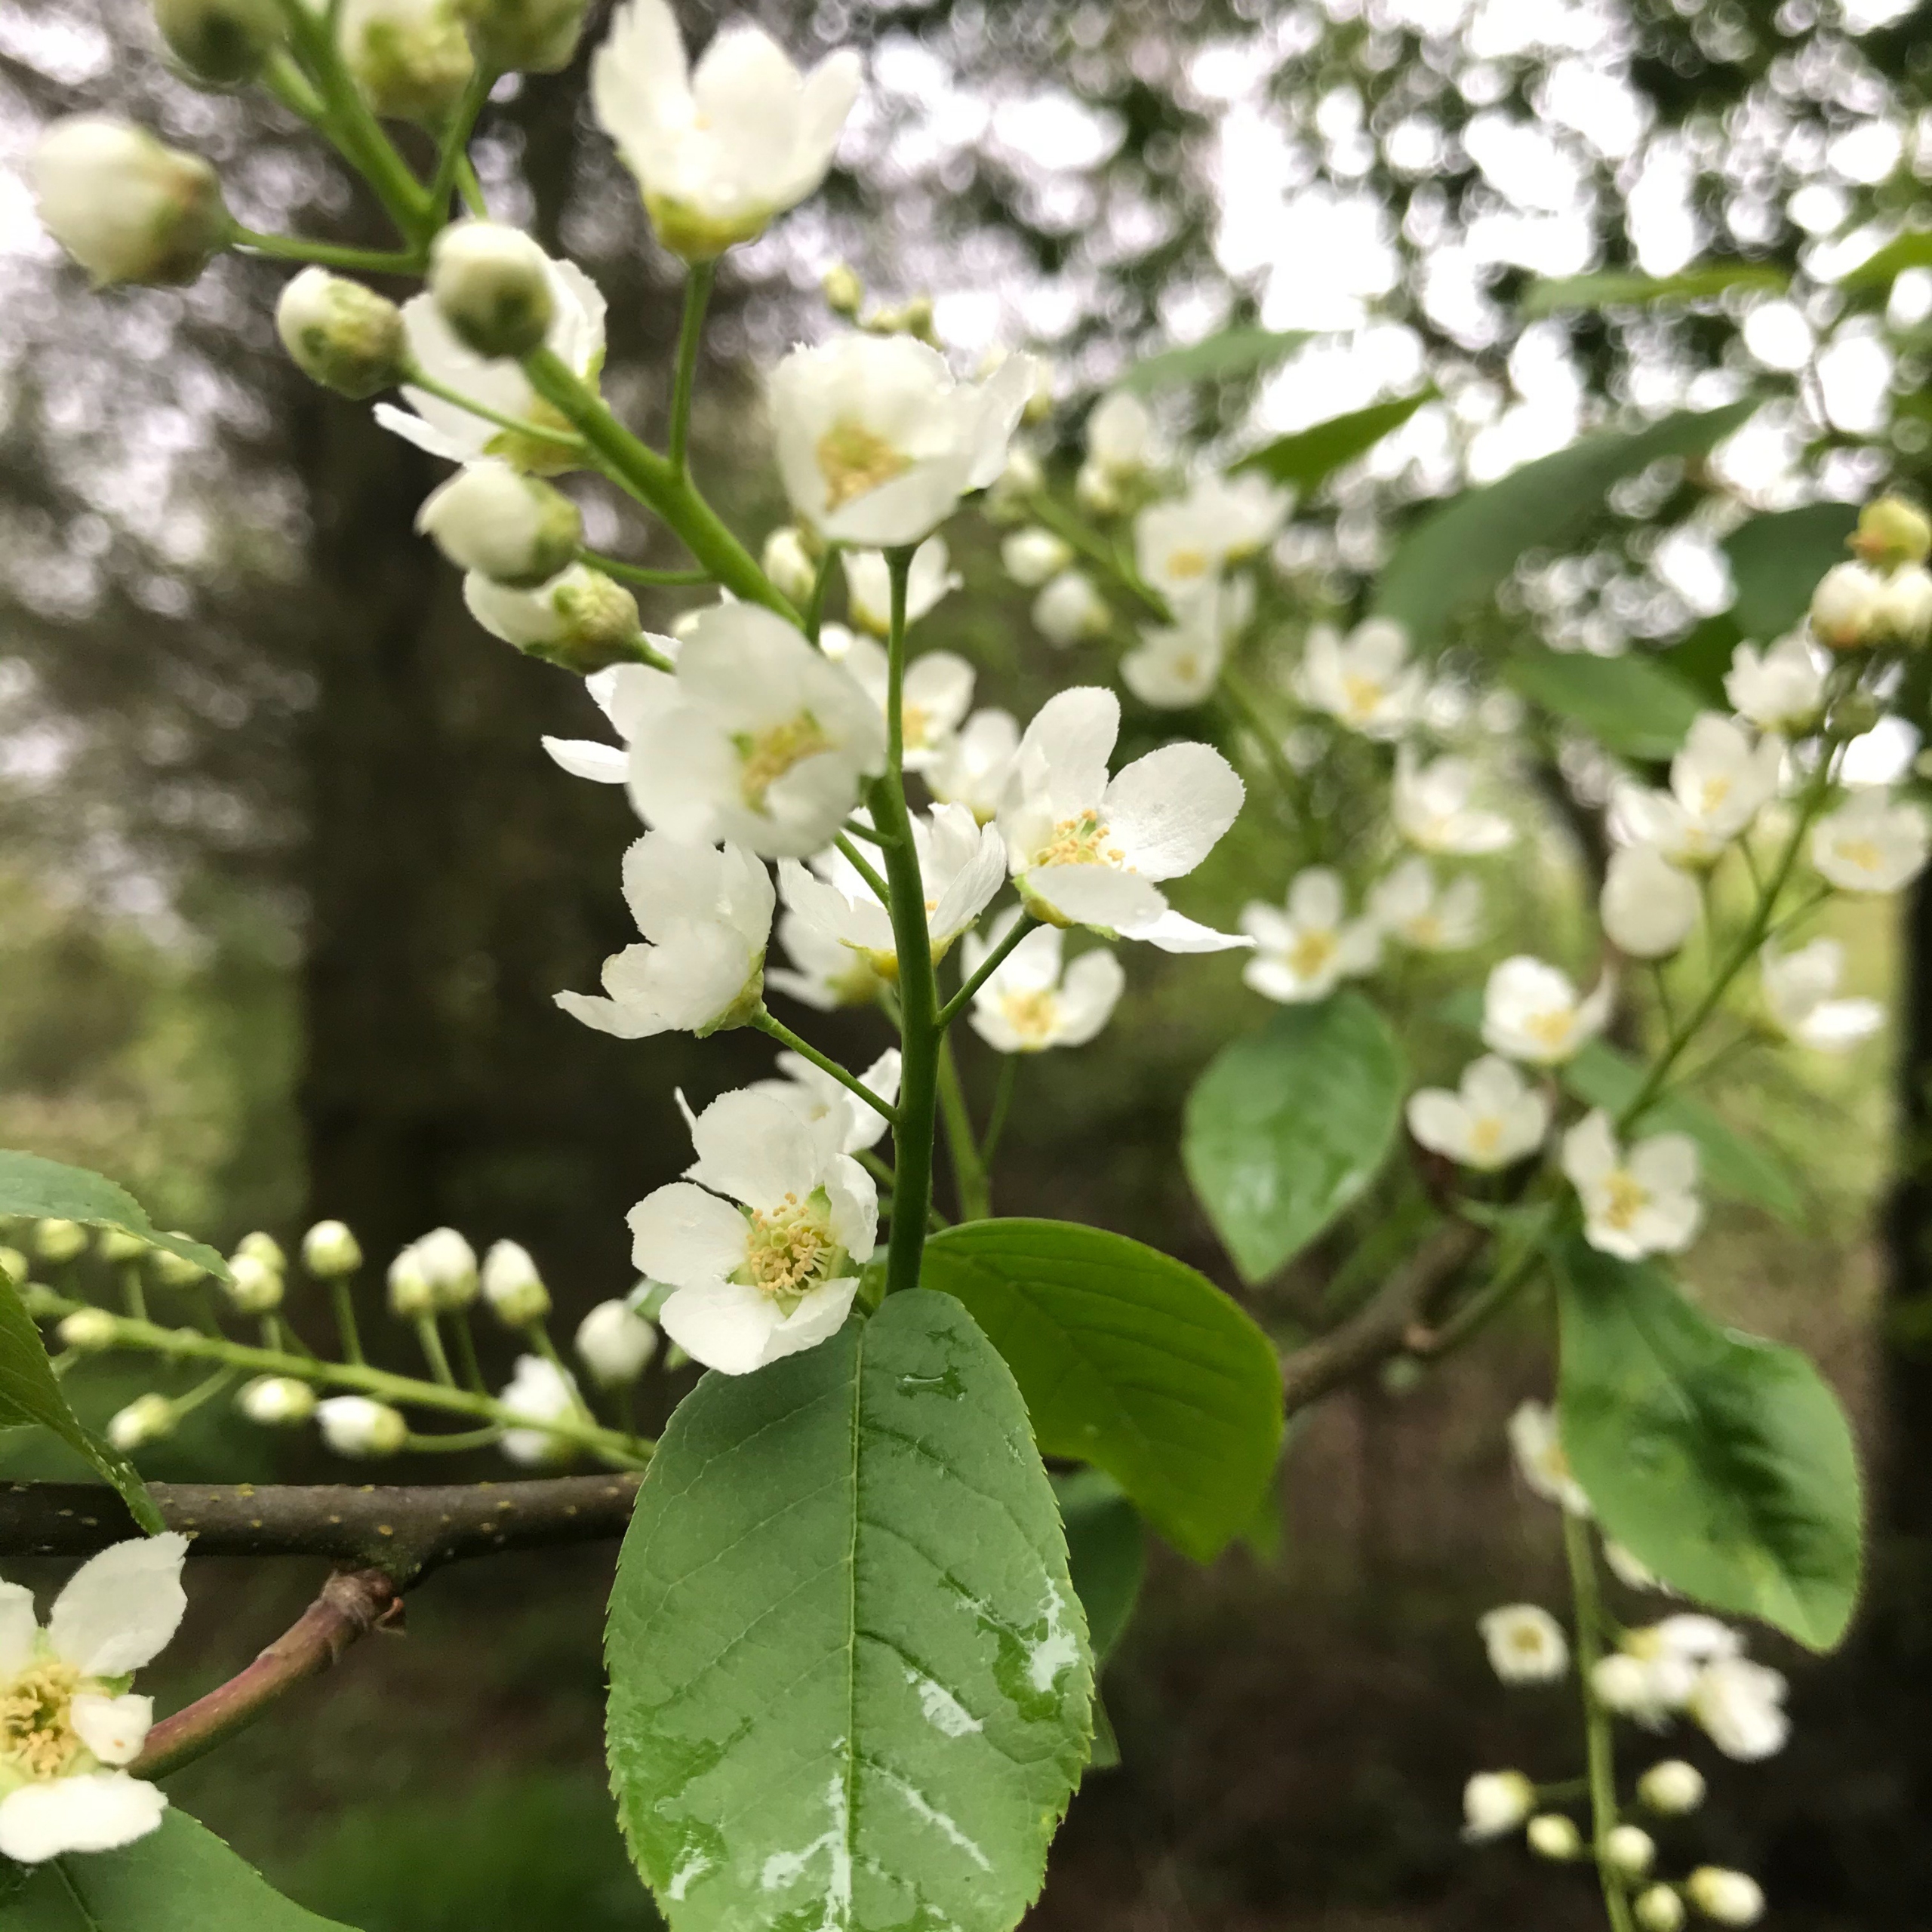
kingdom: Plantae
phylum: Tracheophyta
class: Magnoliopsida
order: Rosales
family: Rosaceae
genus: Prunus
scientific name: Prunus padus
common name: Almindelig hæg
